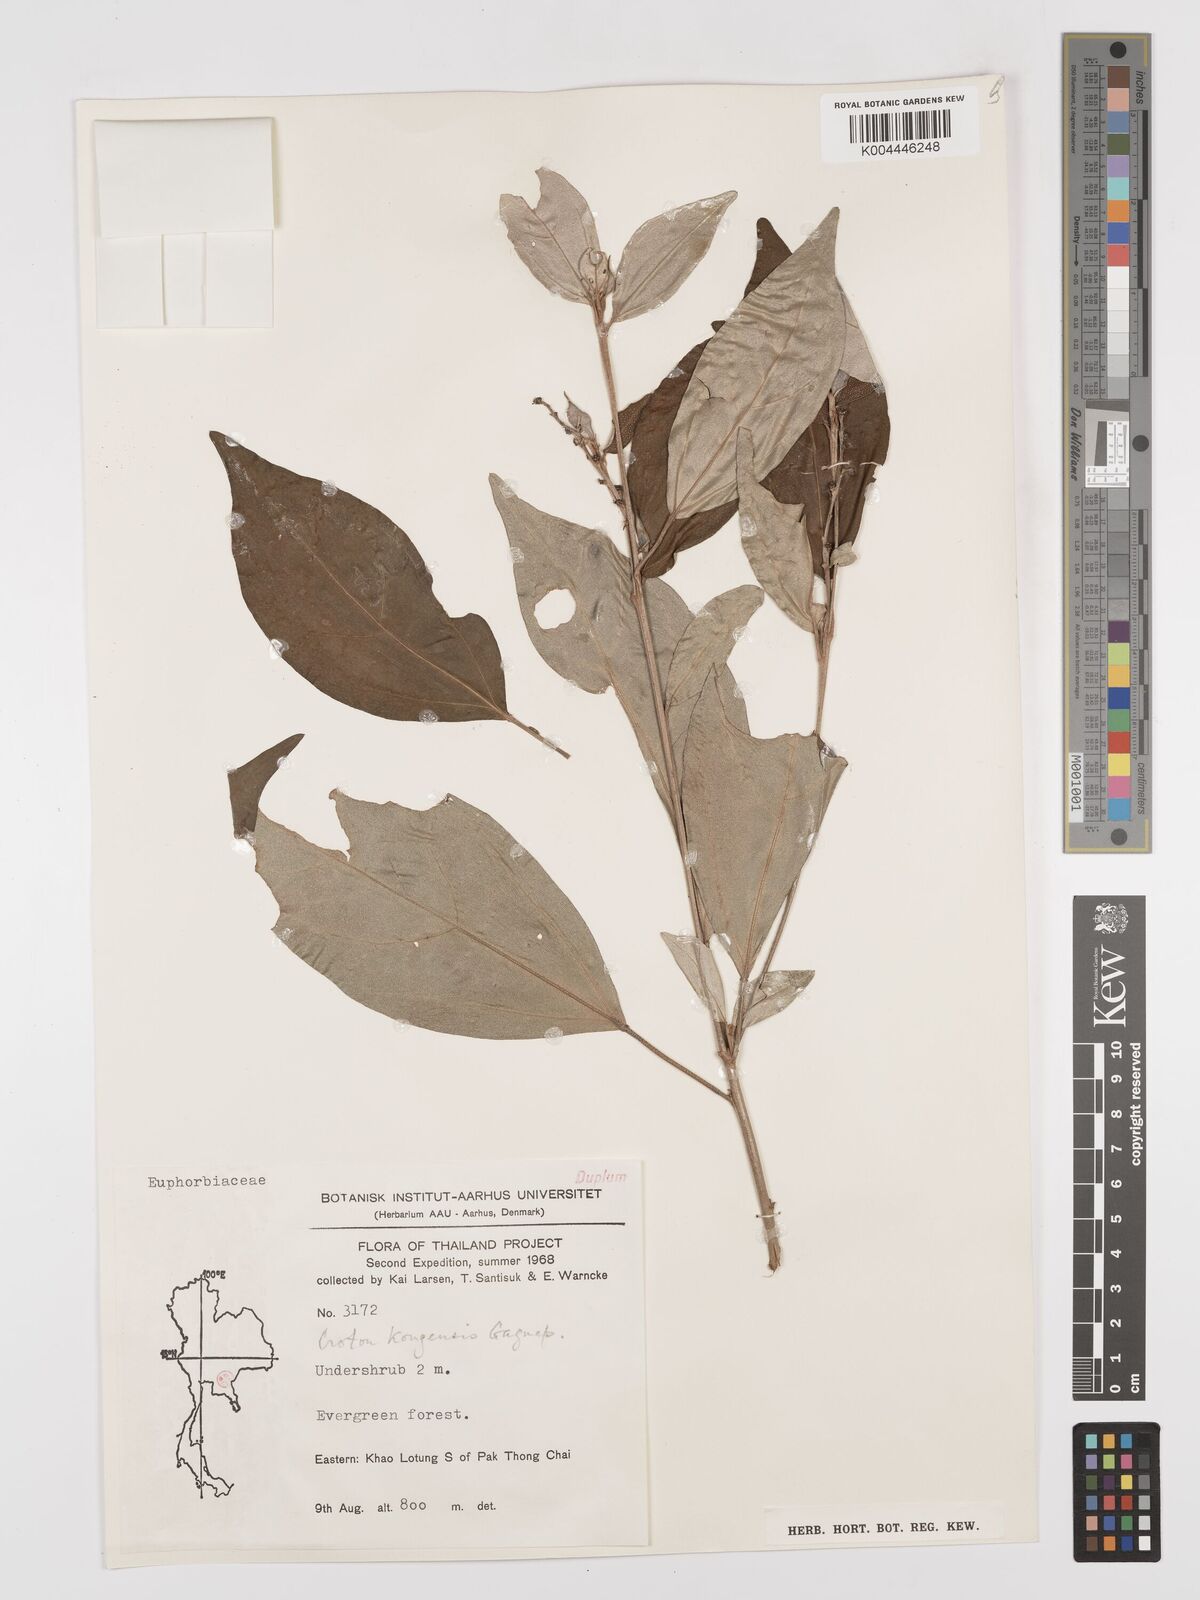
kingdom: Plantae
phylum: Tracheophyta
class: Magnoliopsida
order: Malpighiales
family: Euphorbiaceae
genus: Croton
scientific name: Croton kongensis
